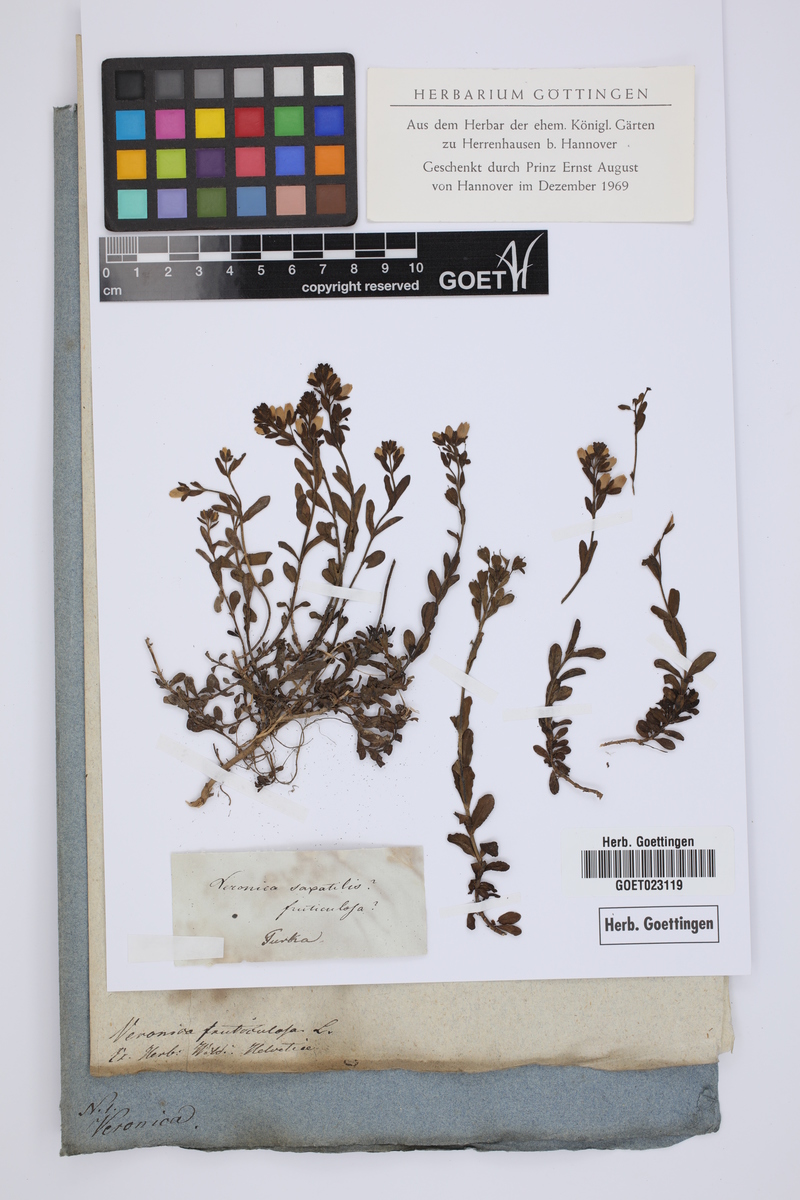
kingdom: Plantae
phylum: Tracheophyta
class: Magnoliopsida
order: Lamiales
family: Plantaginaceae
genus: Veronica
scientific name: Veronica fruticulosa
